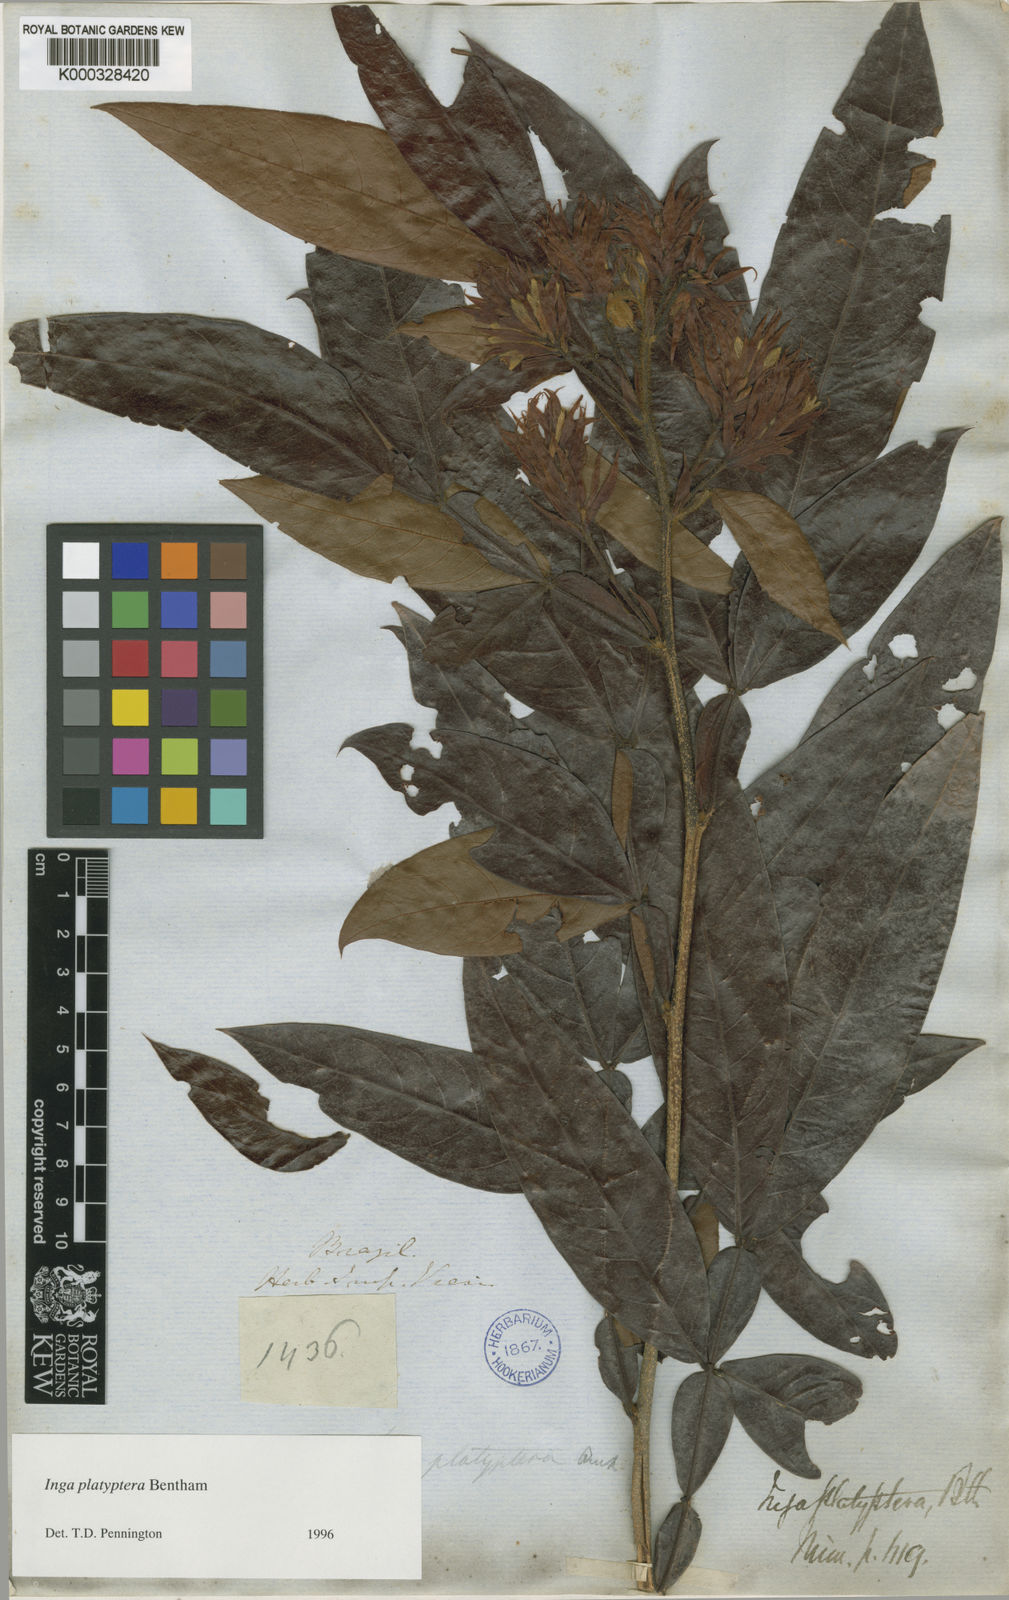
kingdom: Plantae
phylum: Tracheophyta
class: Magnoliopsida
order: Fabales
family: Fabaceae
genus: Inga
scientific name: Inga platyptera
